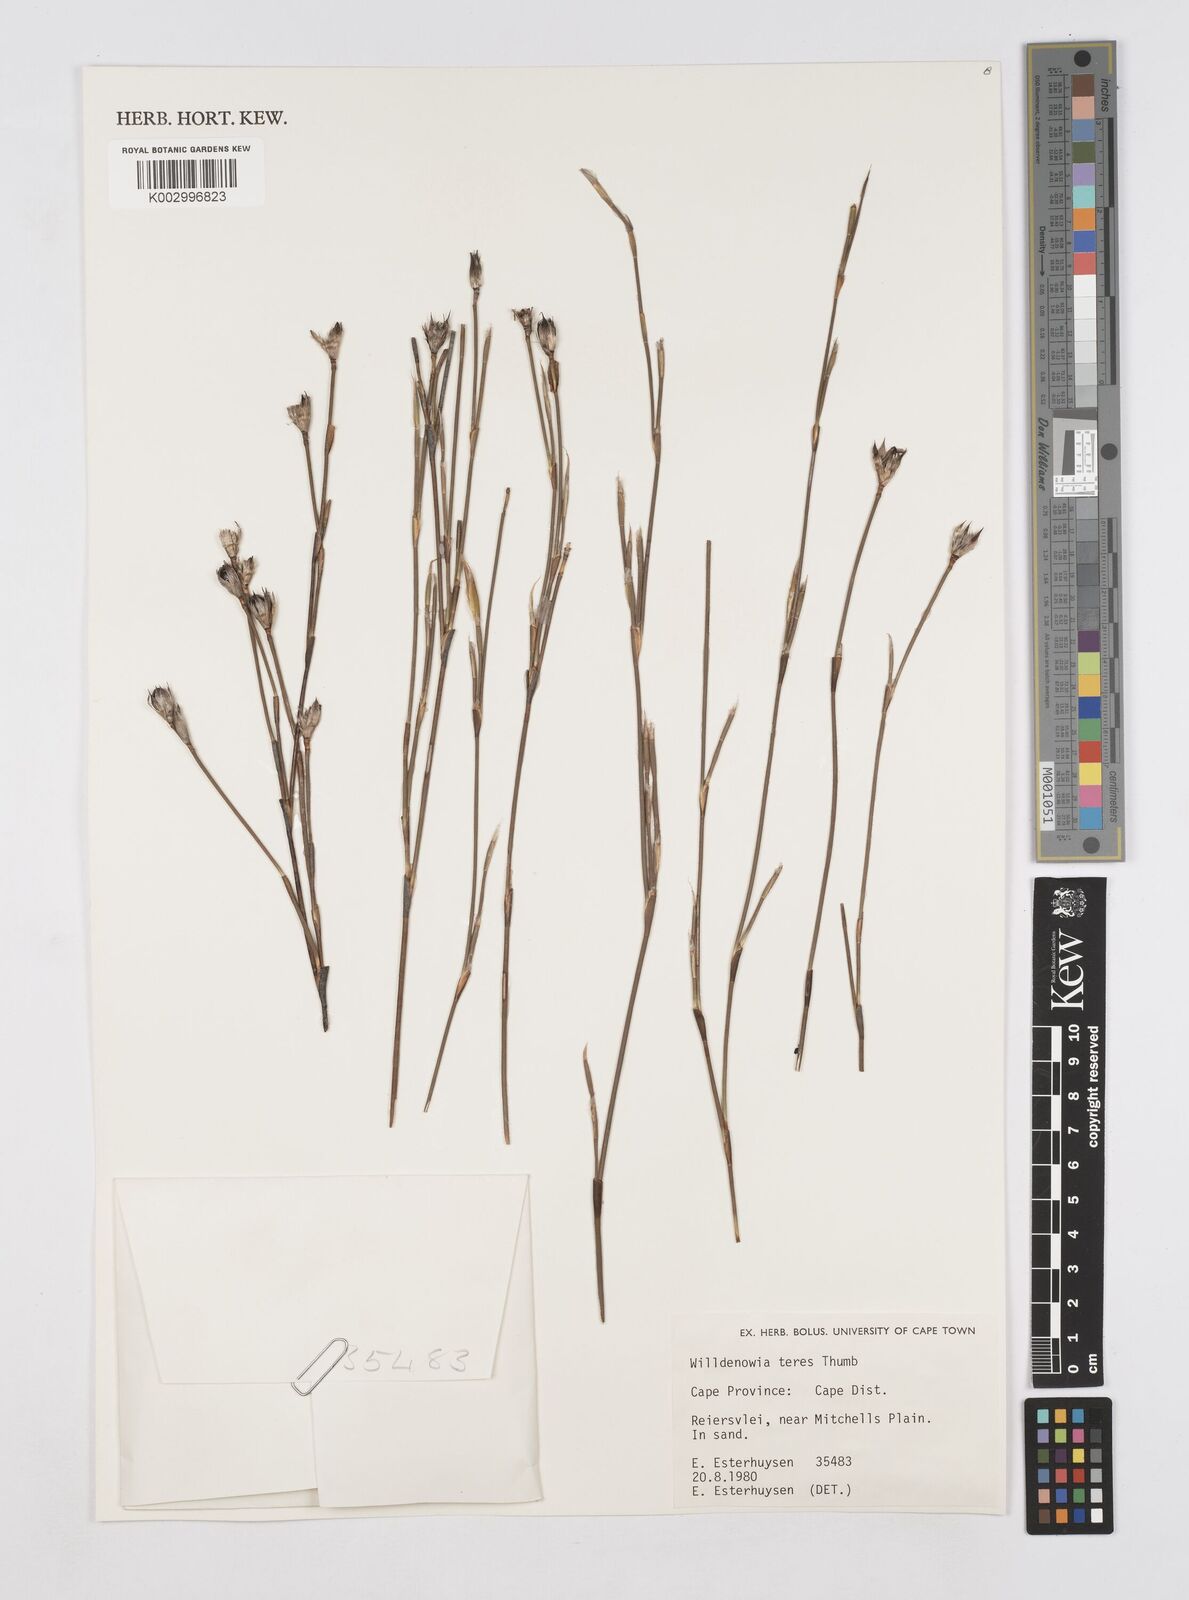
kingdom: Plantae
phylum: Tracheophyta
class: Liliopsida
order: Poales
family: Restionaceae
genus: Willdenowia
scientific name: Willdenowia teres
